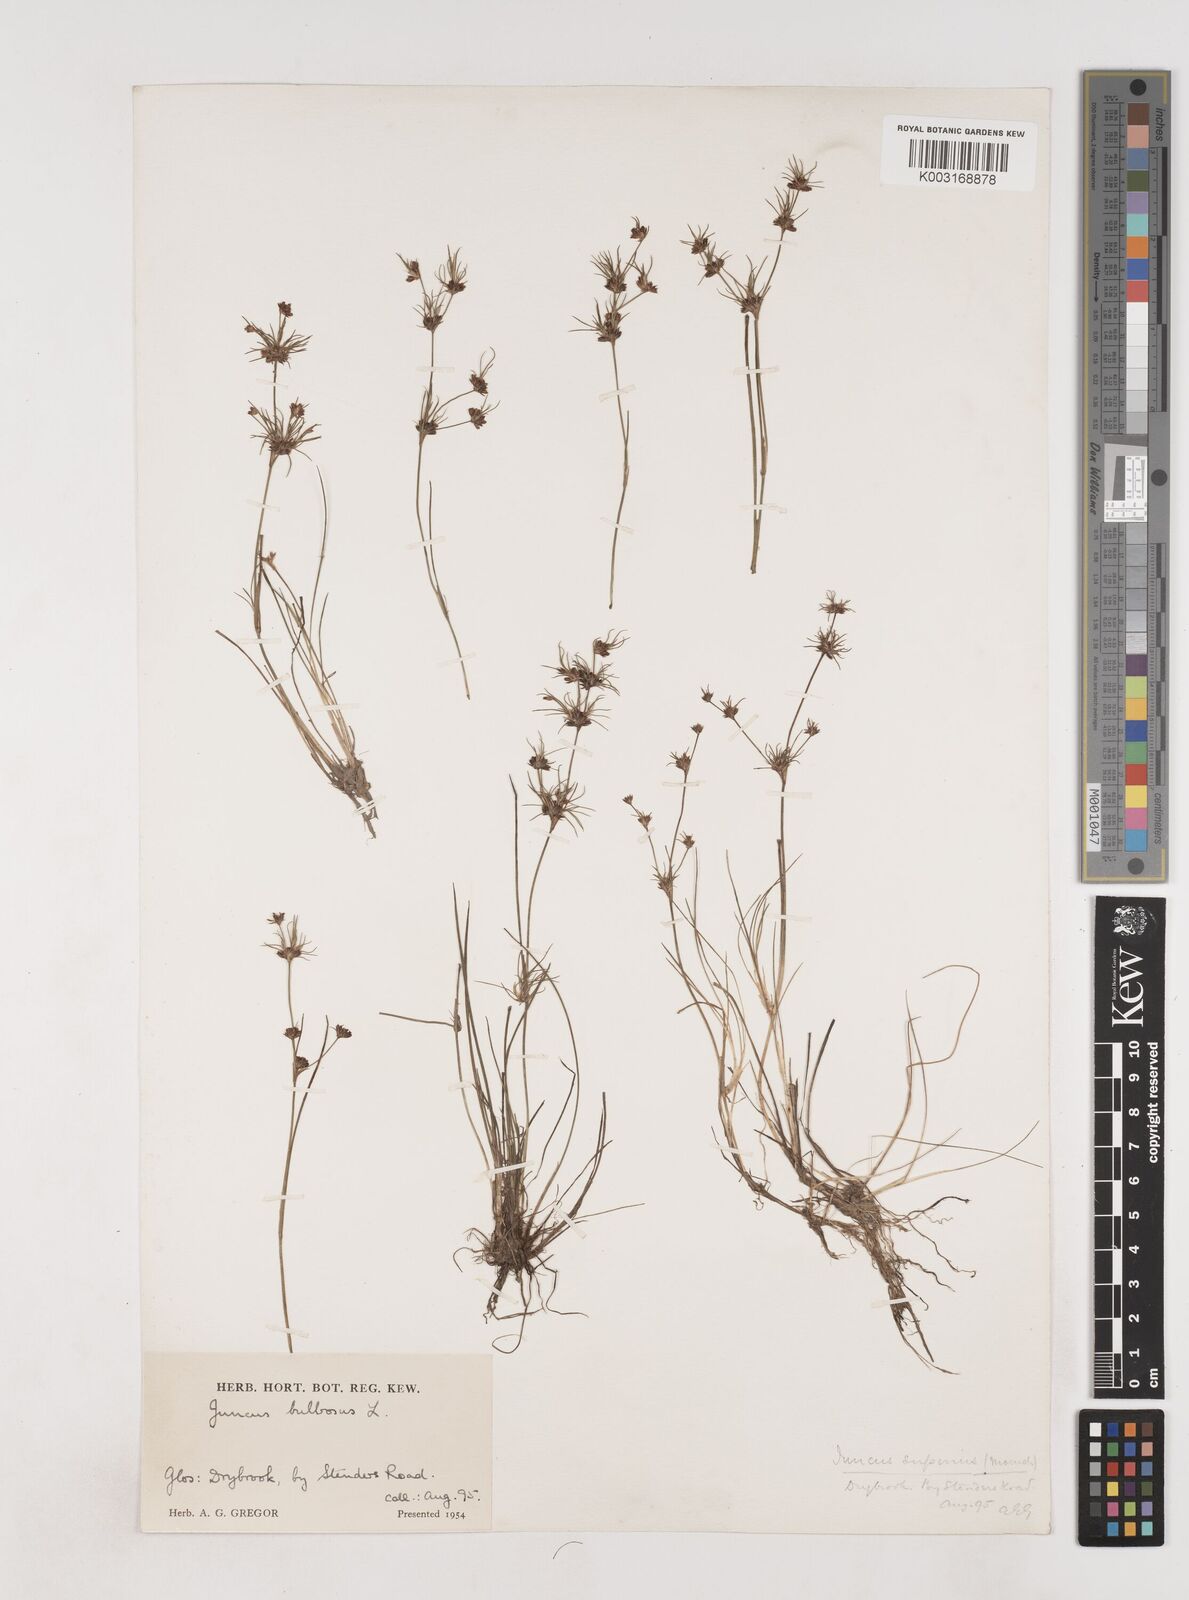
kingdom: Plantae
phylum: Tracheophyta
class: Liliopsida
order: Poales
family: Juncaceae
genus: Juncus
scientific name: Juncus bulbosus
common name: Bulbous rush
